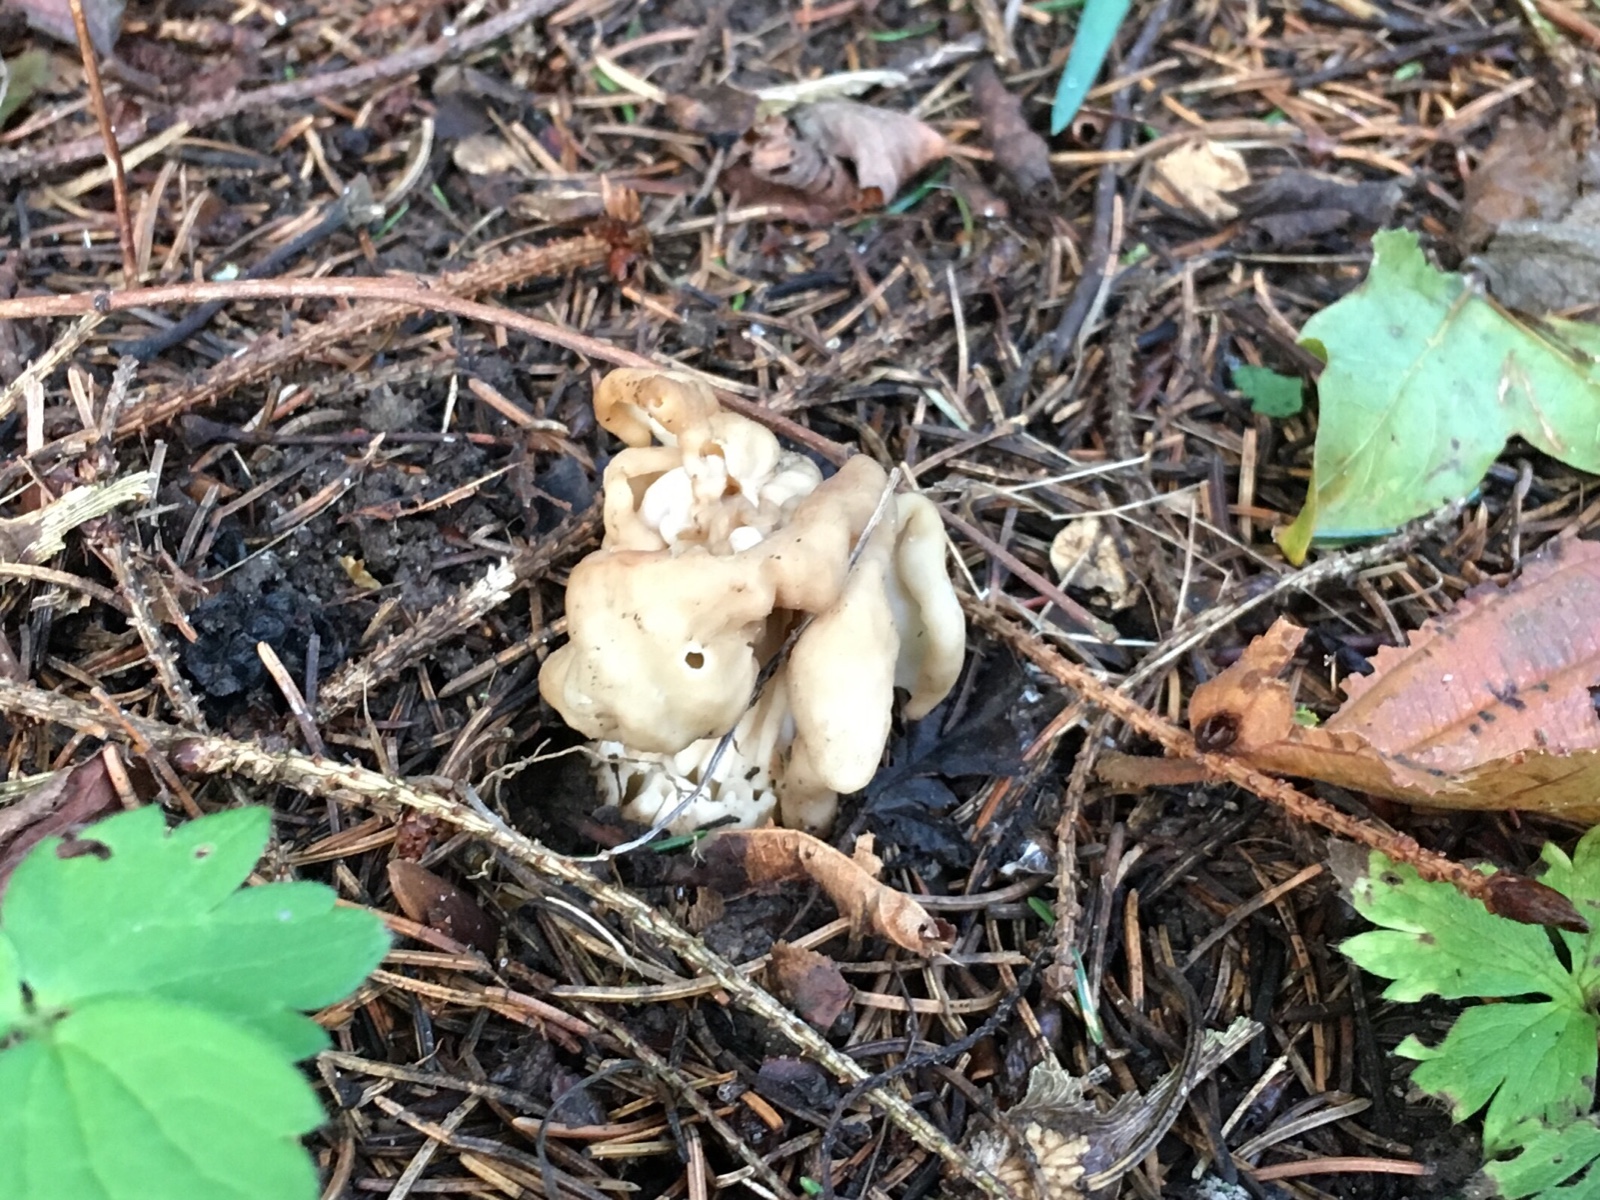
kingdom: Fungi
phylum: Ascomycota
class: Pezizomycetes
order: Pezizales
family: Helvellaceae
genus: Helvella
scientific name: Helvella crispa
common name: kruset foldhat
